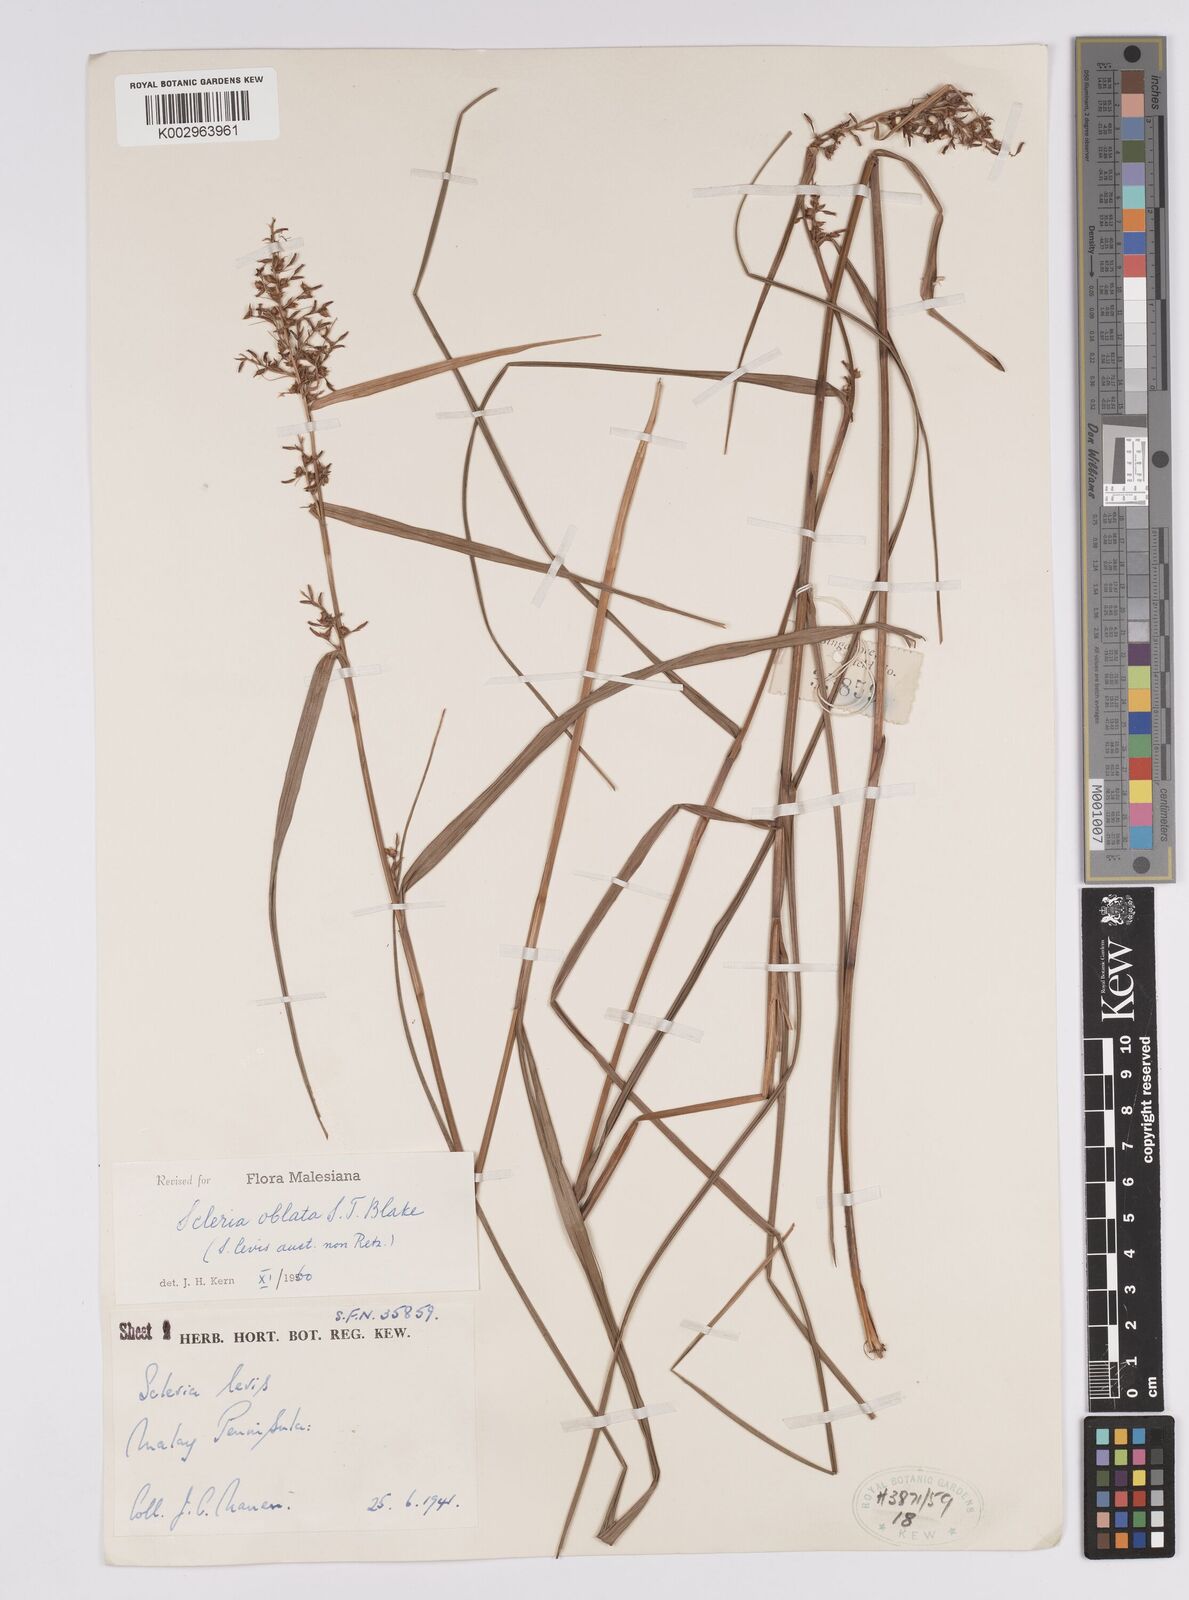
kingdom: Plantae
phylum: Tracheophyta
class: Liliopsida
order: Poales
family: Cyperaceae
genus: Scleria
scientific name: Scleria oblata
